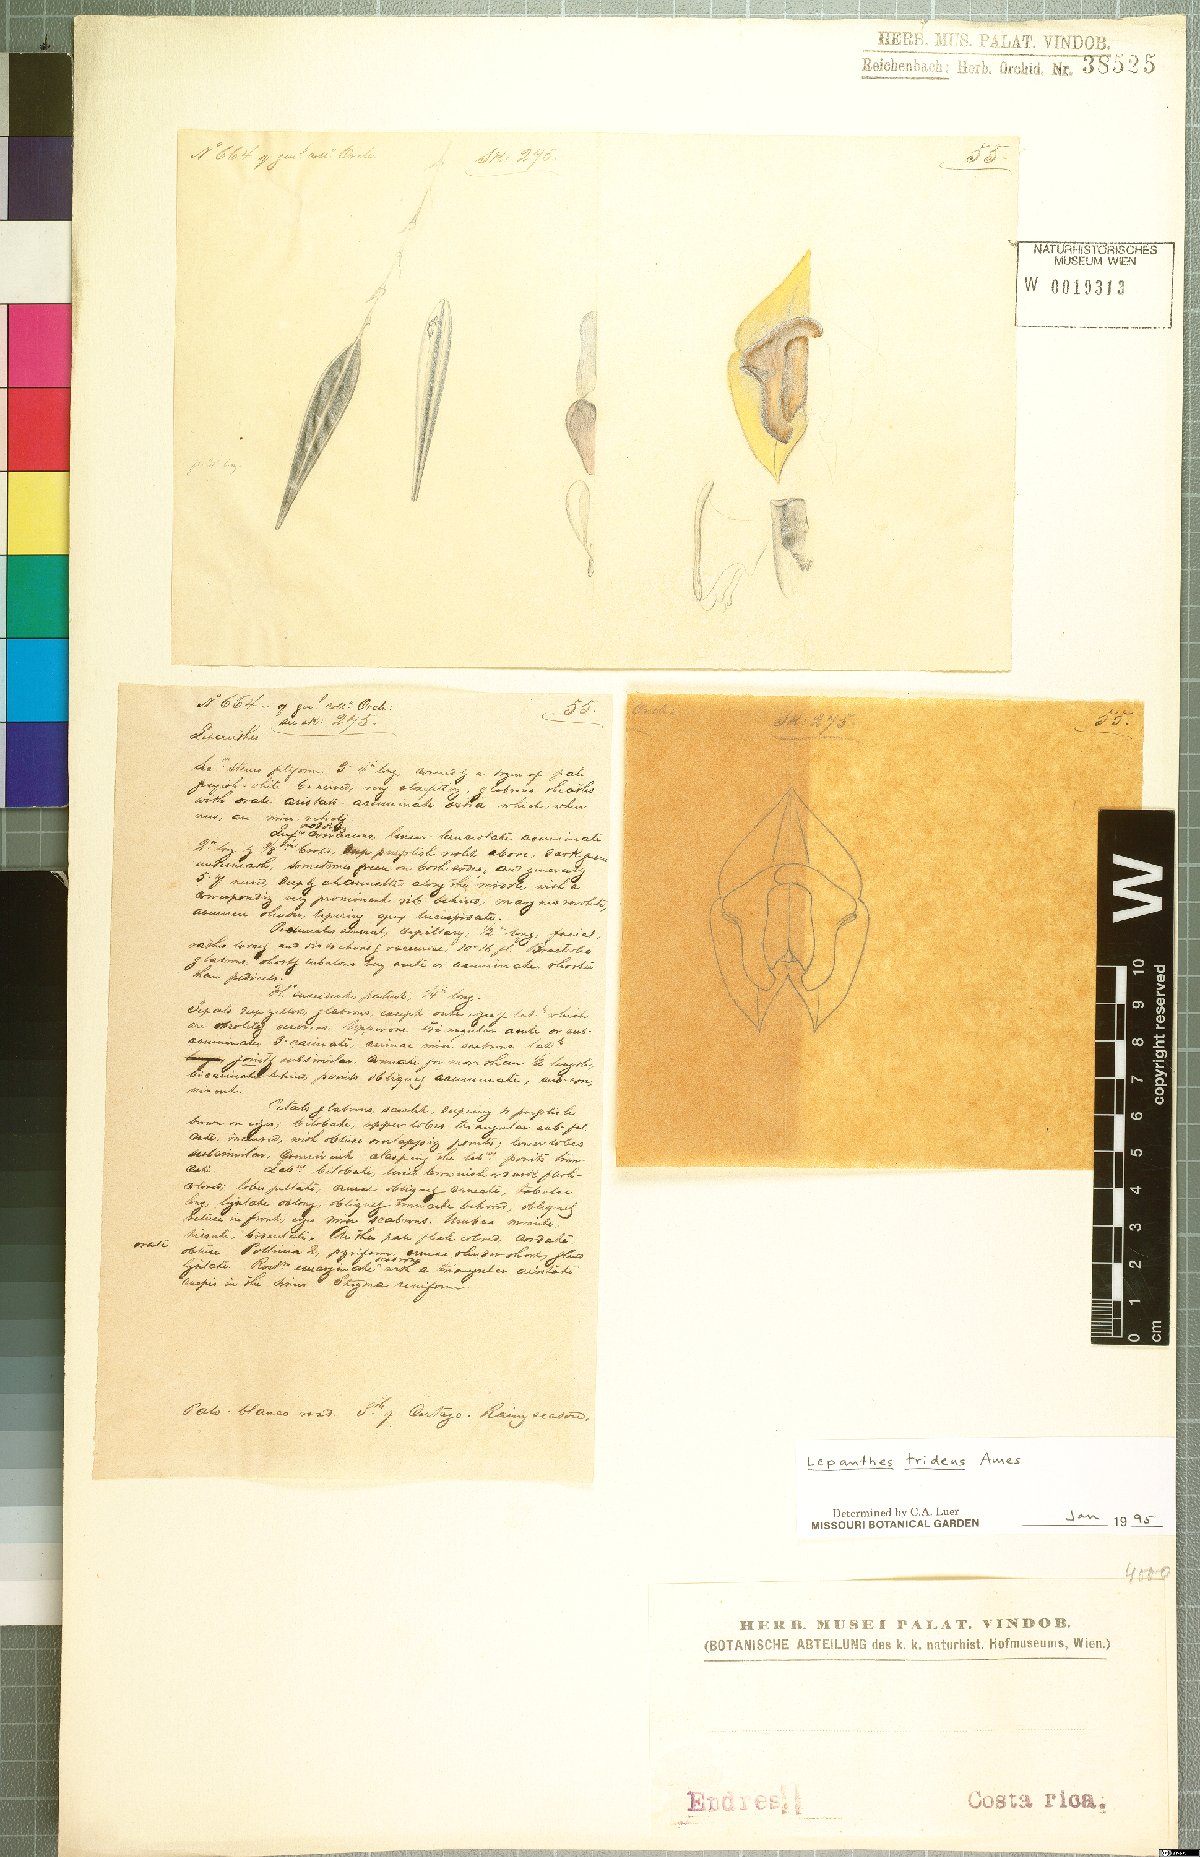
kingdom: Plantae
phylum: Tracheophyta
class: Liliopsida
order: Asparagales
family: Orchidaceae
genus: Lepanthes
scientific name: Lepanthes tridens
